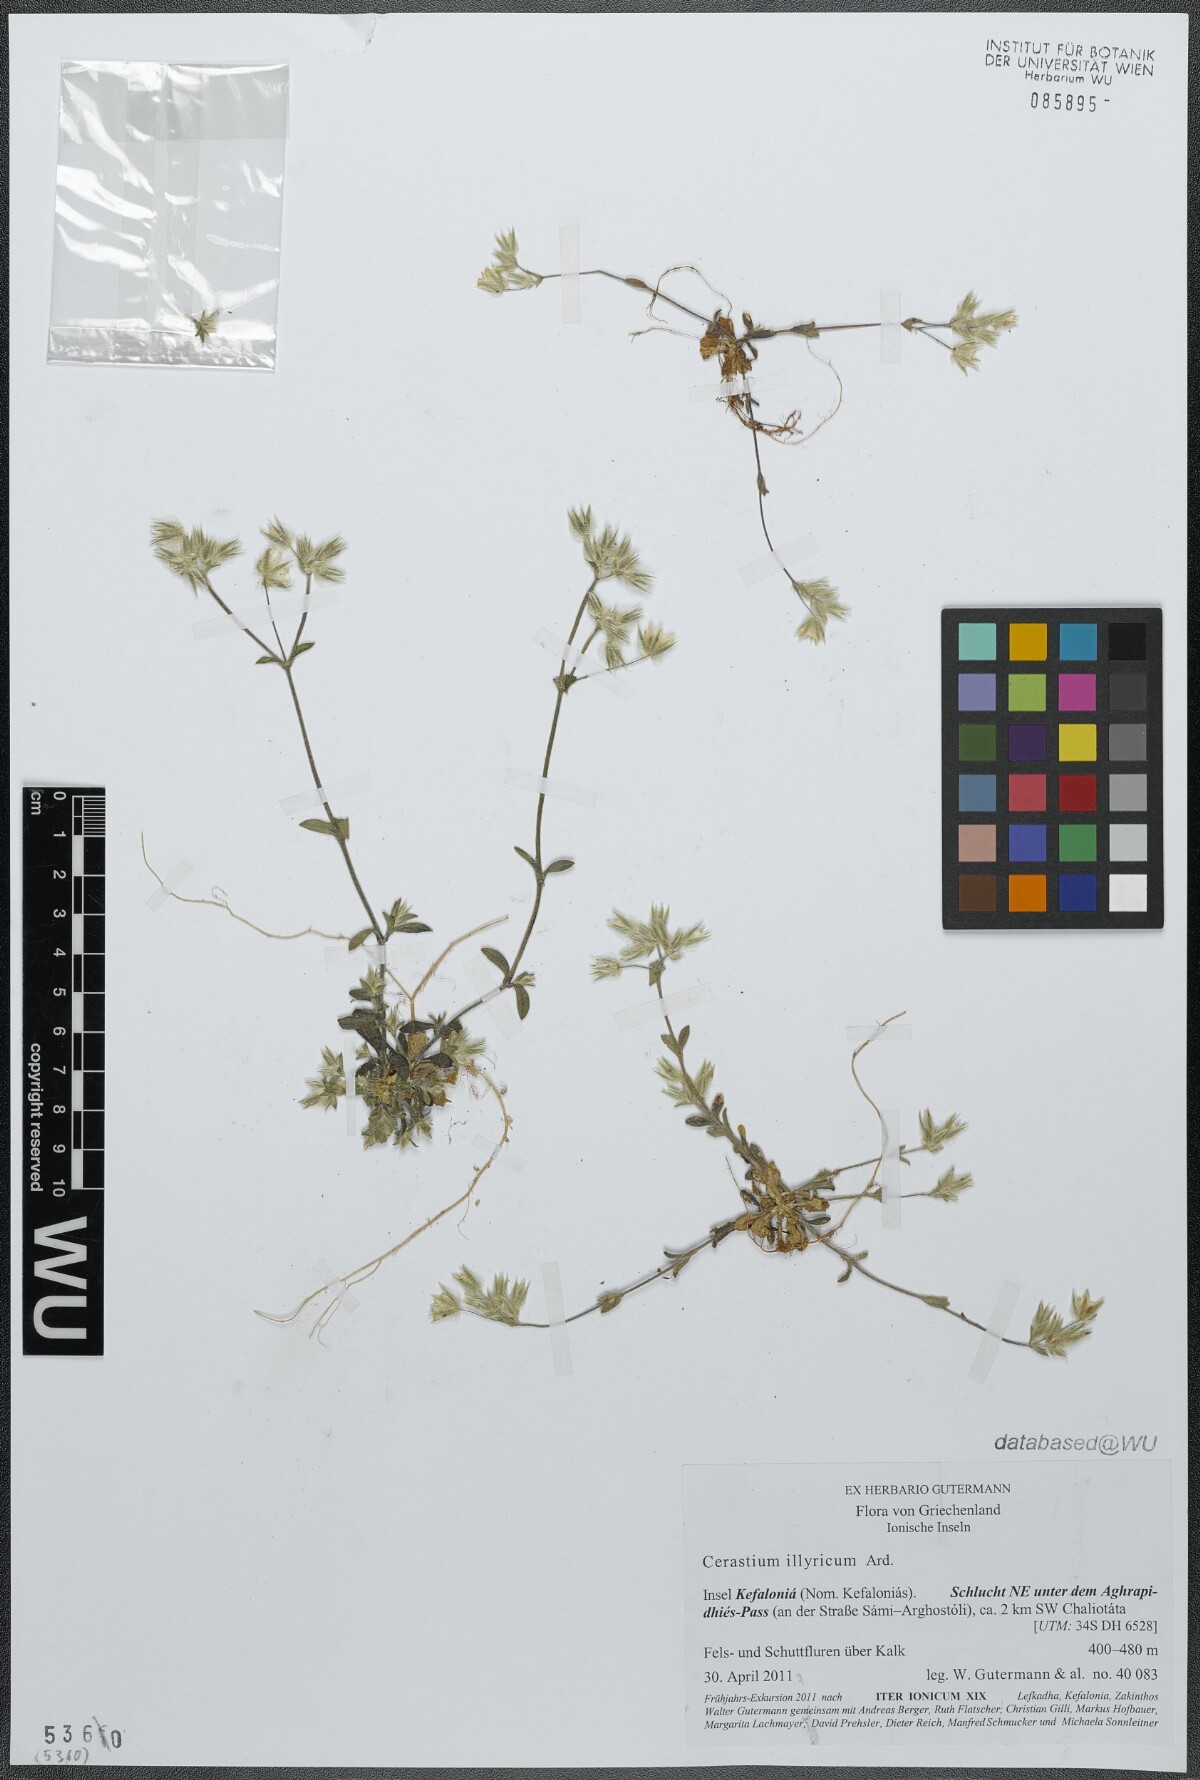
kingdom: Plantae
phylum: Tracheophyta
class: Magnoliopsida
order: Caryophyllales
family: Caryophyllaceae
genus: Cerastium
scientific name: Cerastium illyricum
